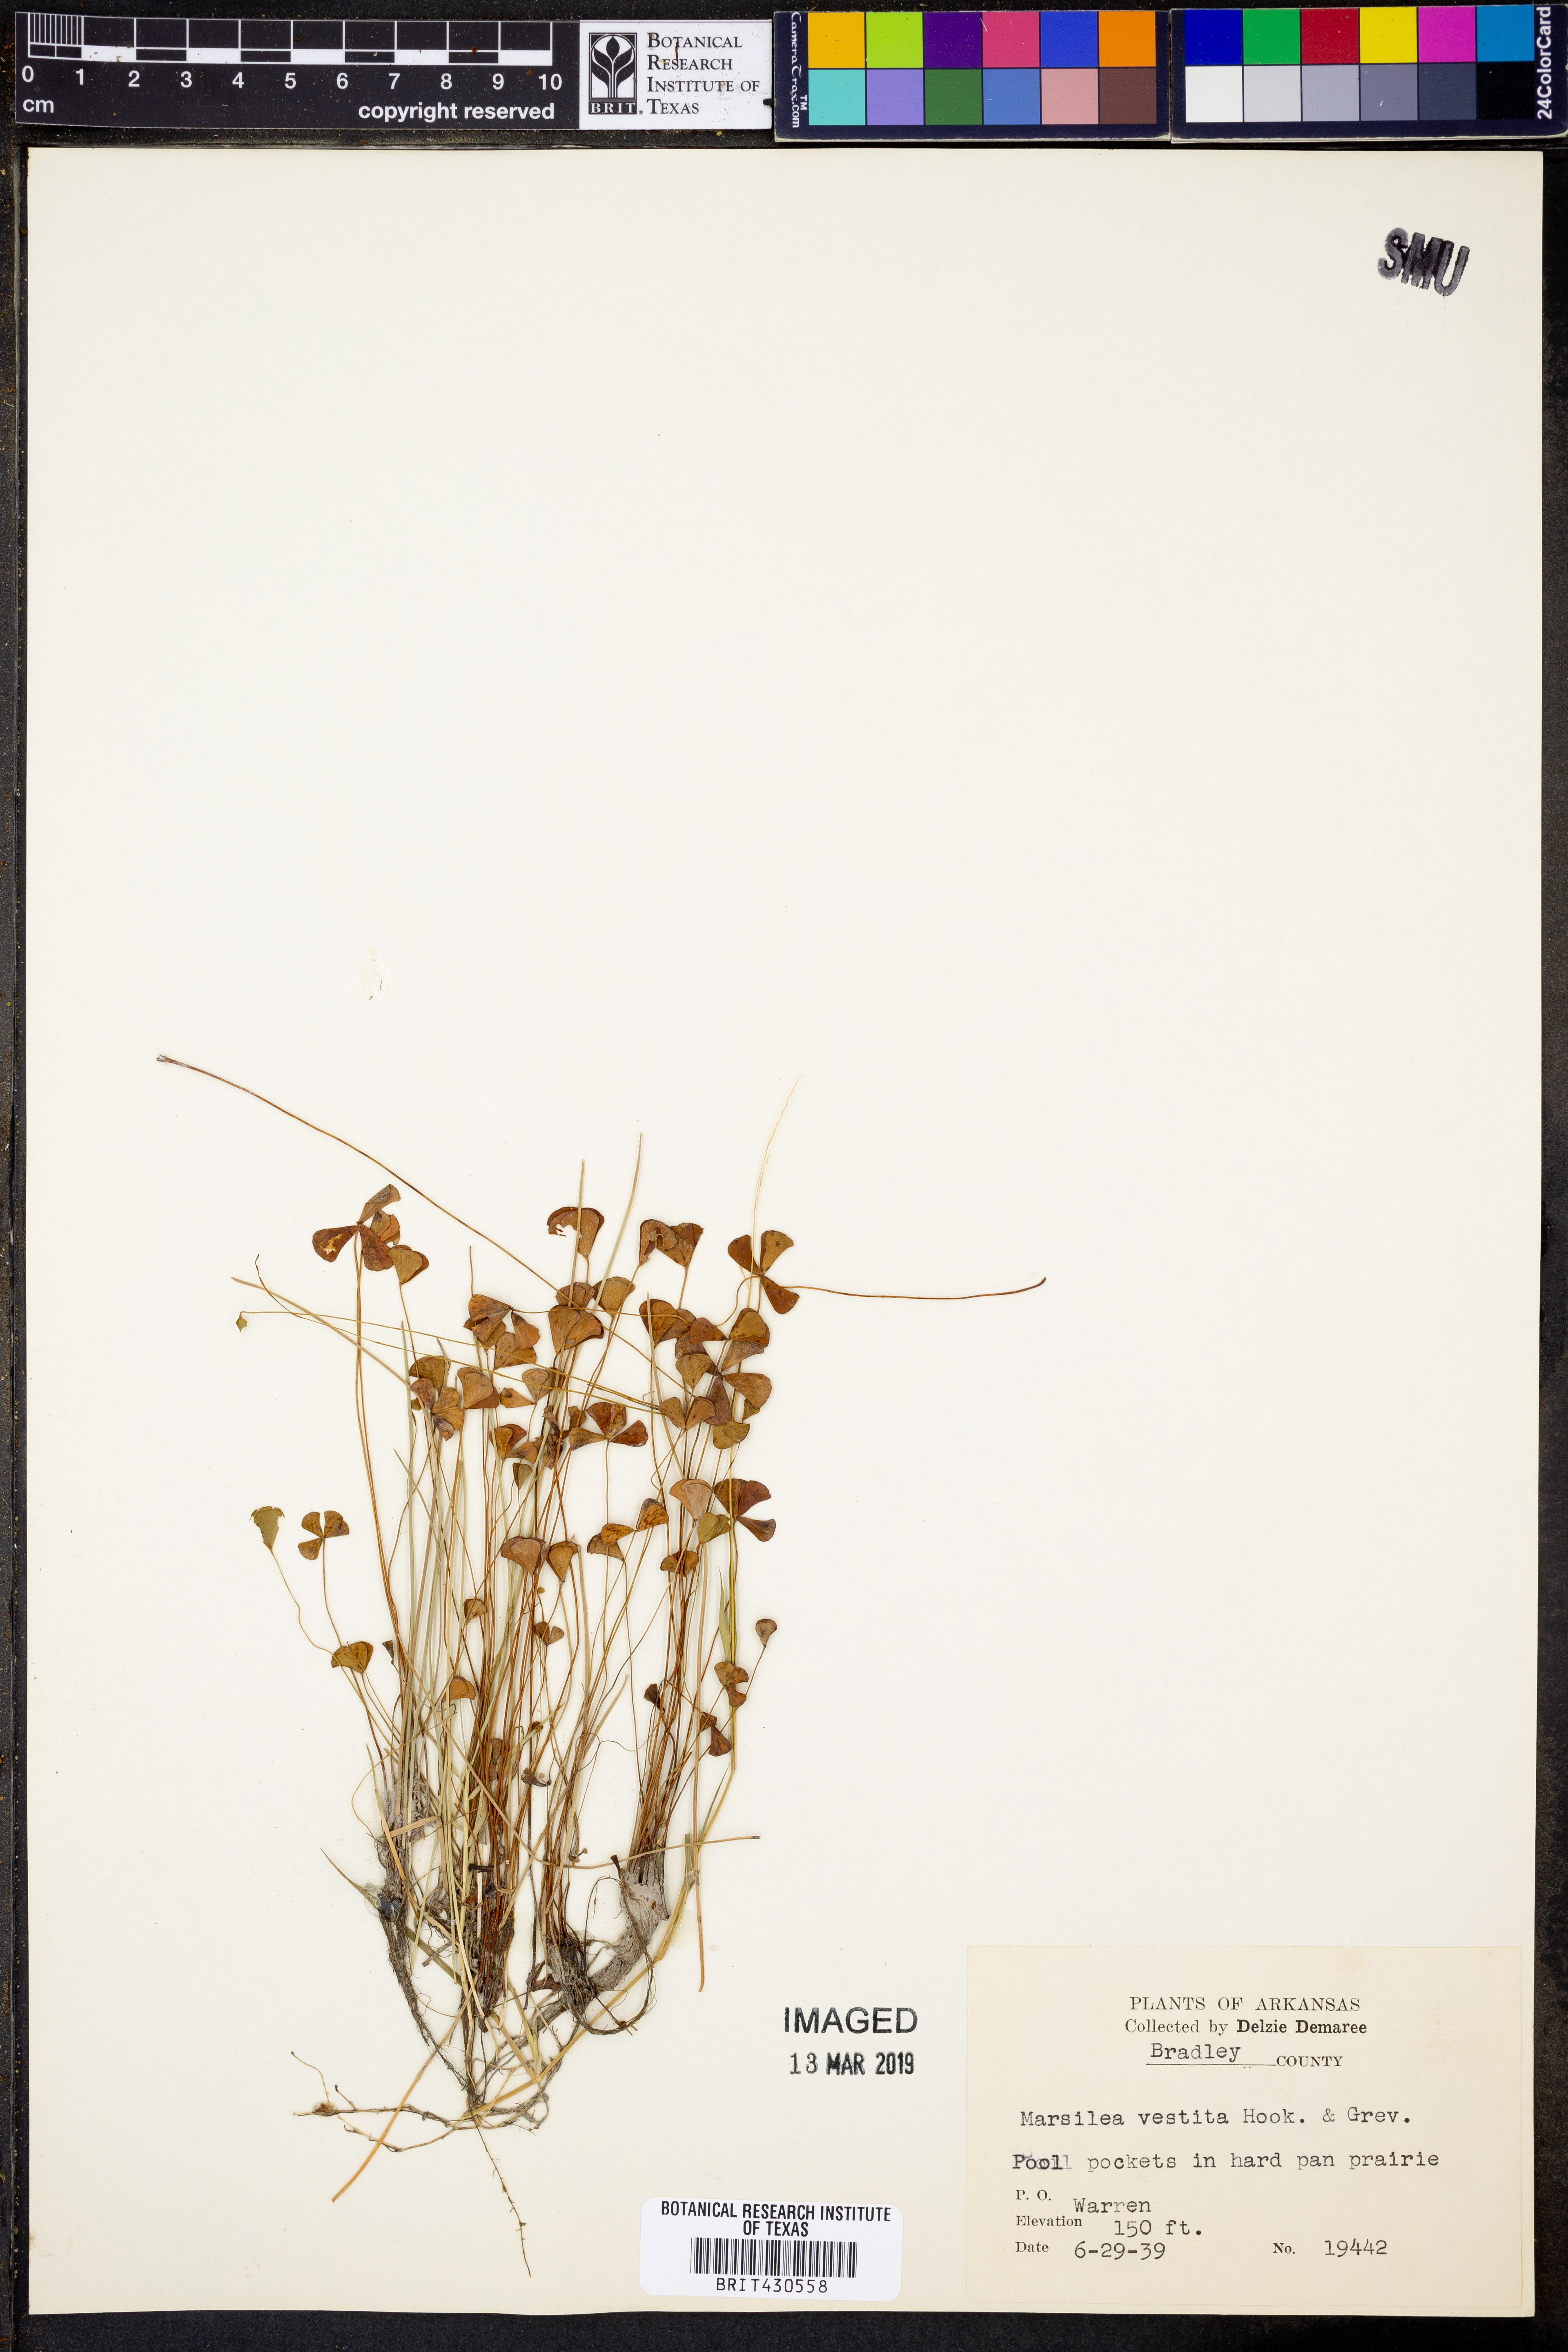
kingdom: Plantae
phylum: Tracheophyta
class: Polypodiopsida
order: Salviniales
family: Marsileaceae
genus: Marsilea
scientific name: Marsilea vestita
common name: Hooked-pepperwort
